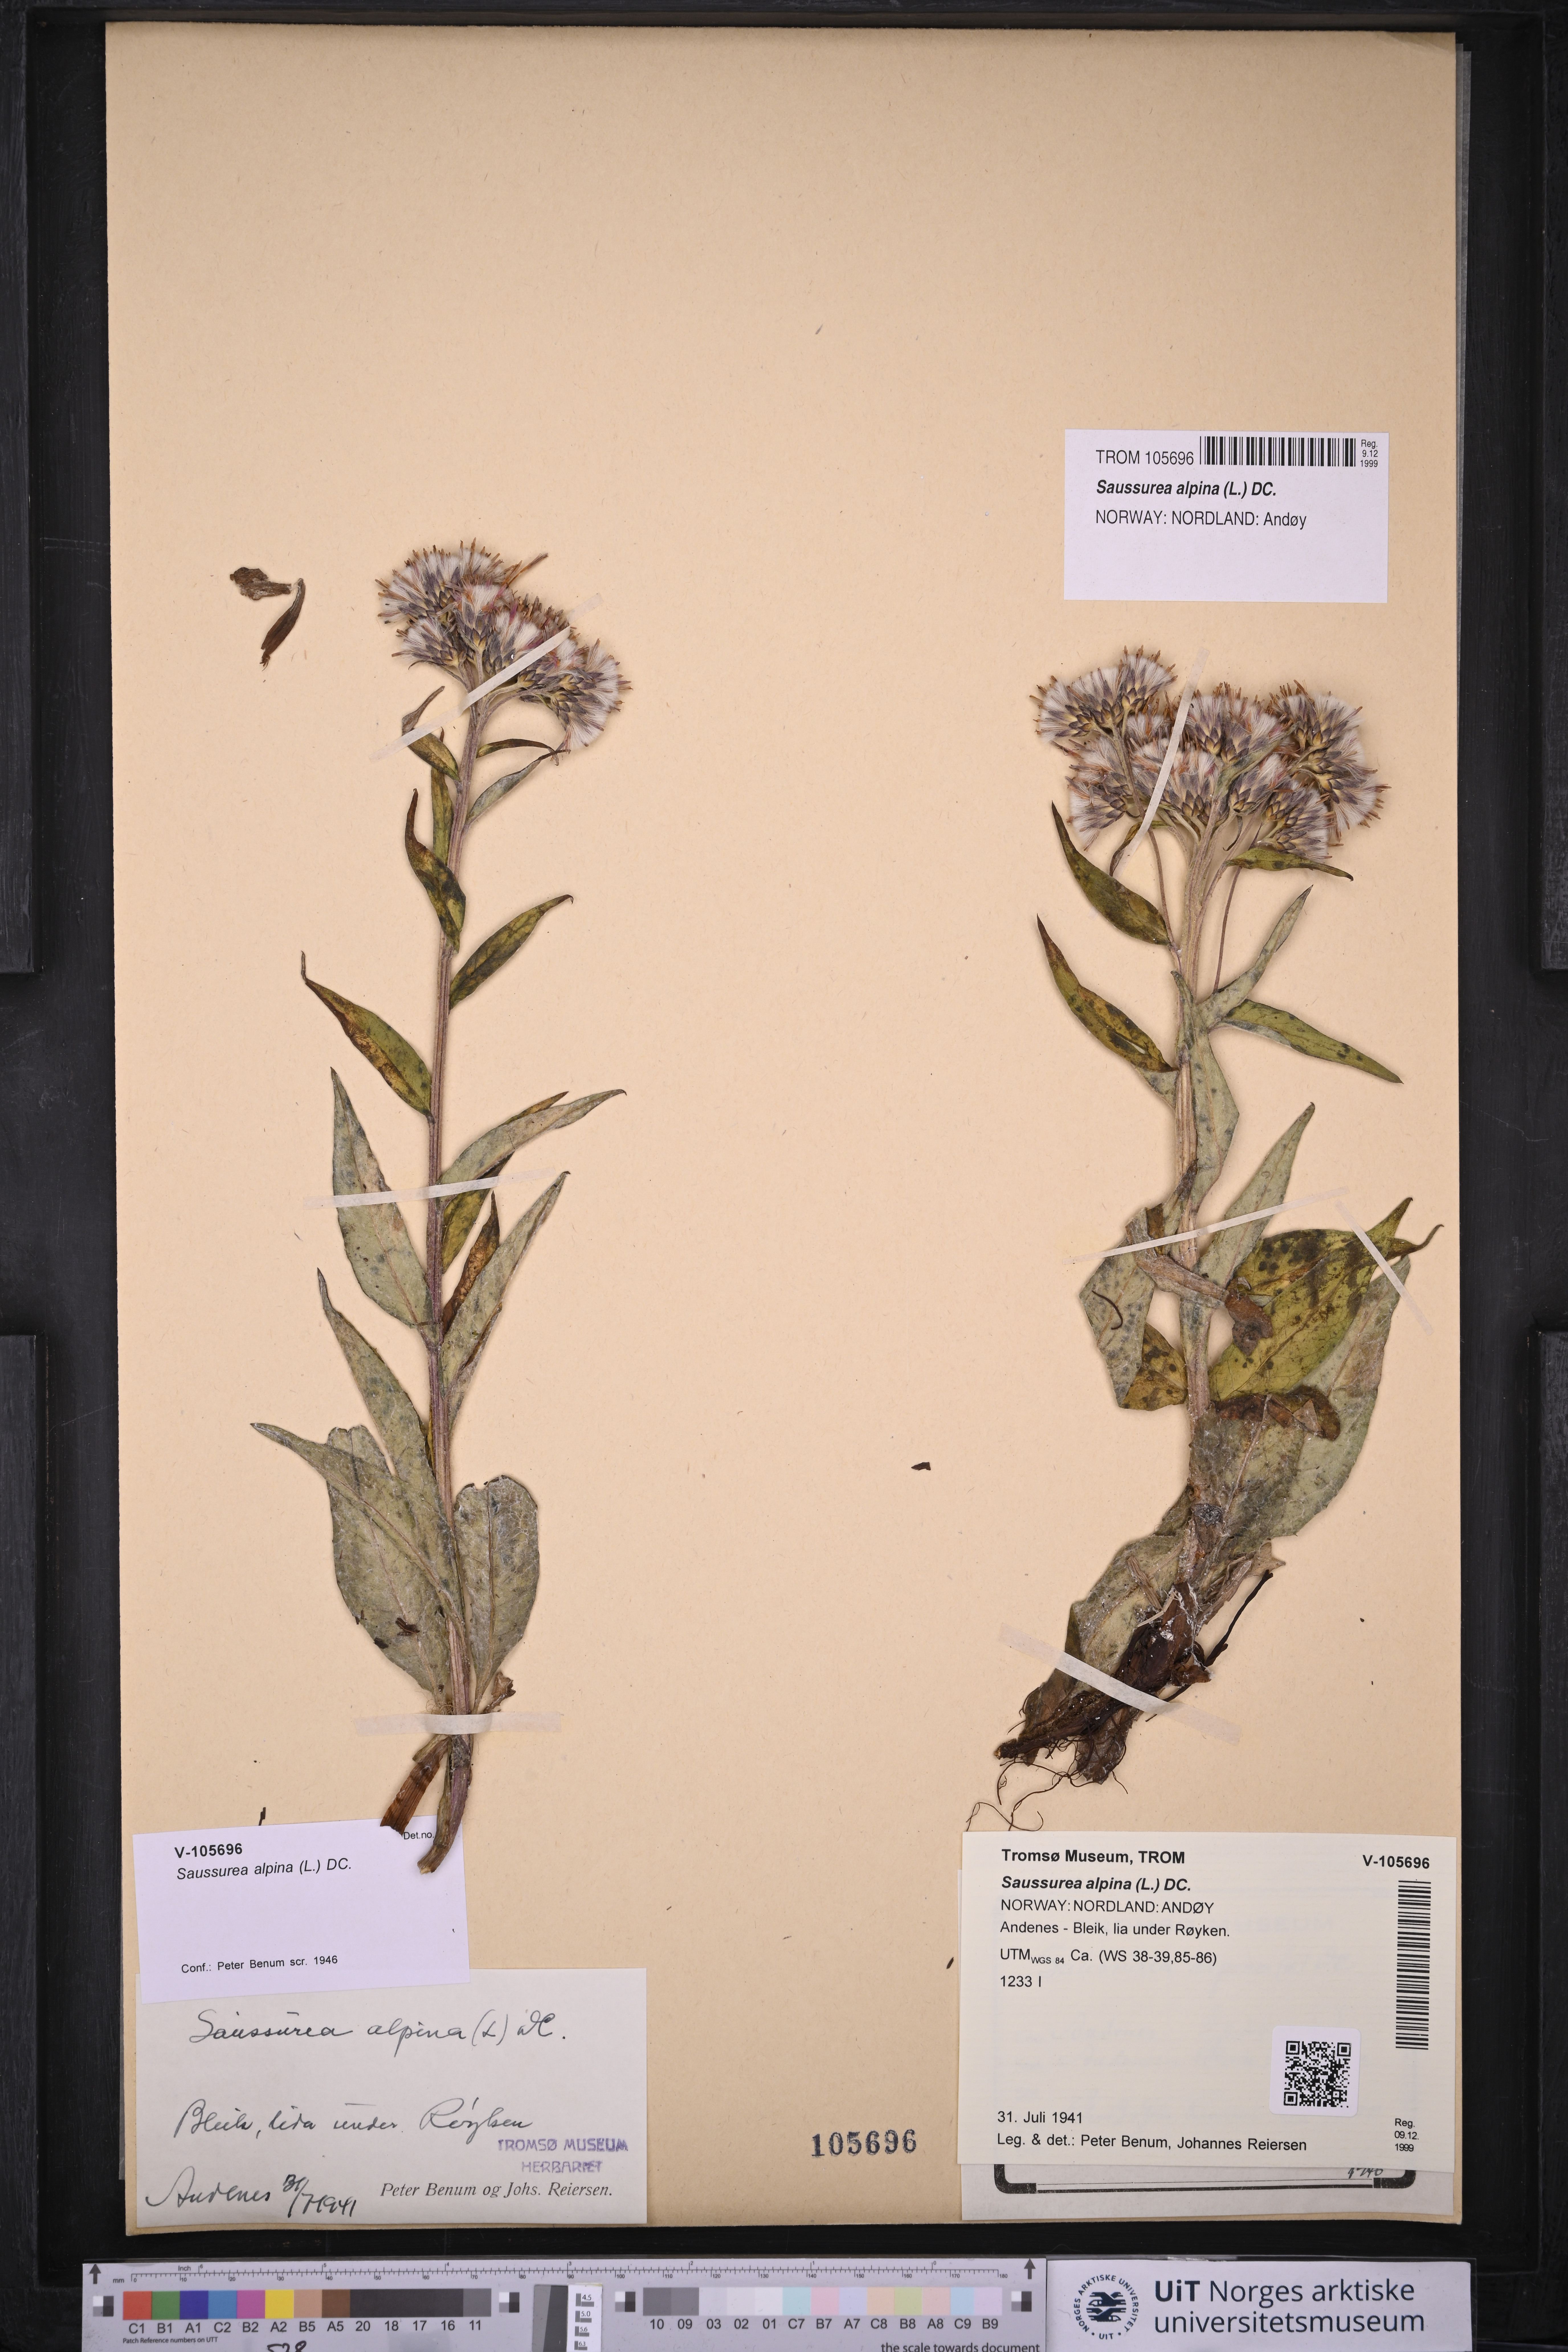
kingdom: Plantae
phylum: Tracheophyta
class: Magnoliopsida
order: Asterales
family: Asteraceae
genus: Saussurea
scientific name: Saussurea alpina
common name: Alpine saw-wort
